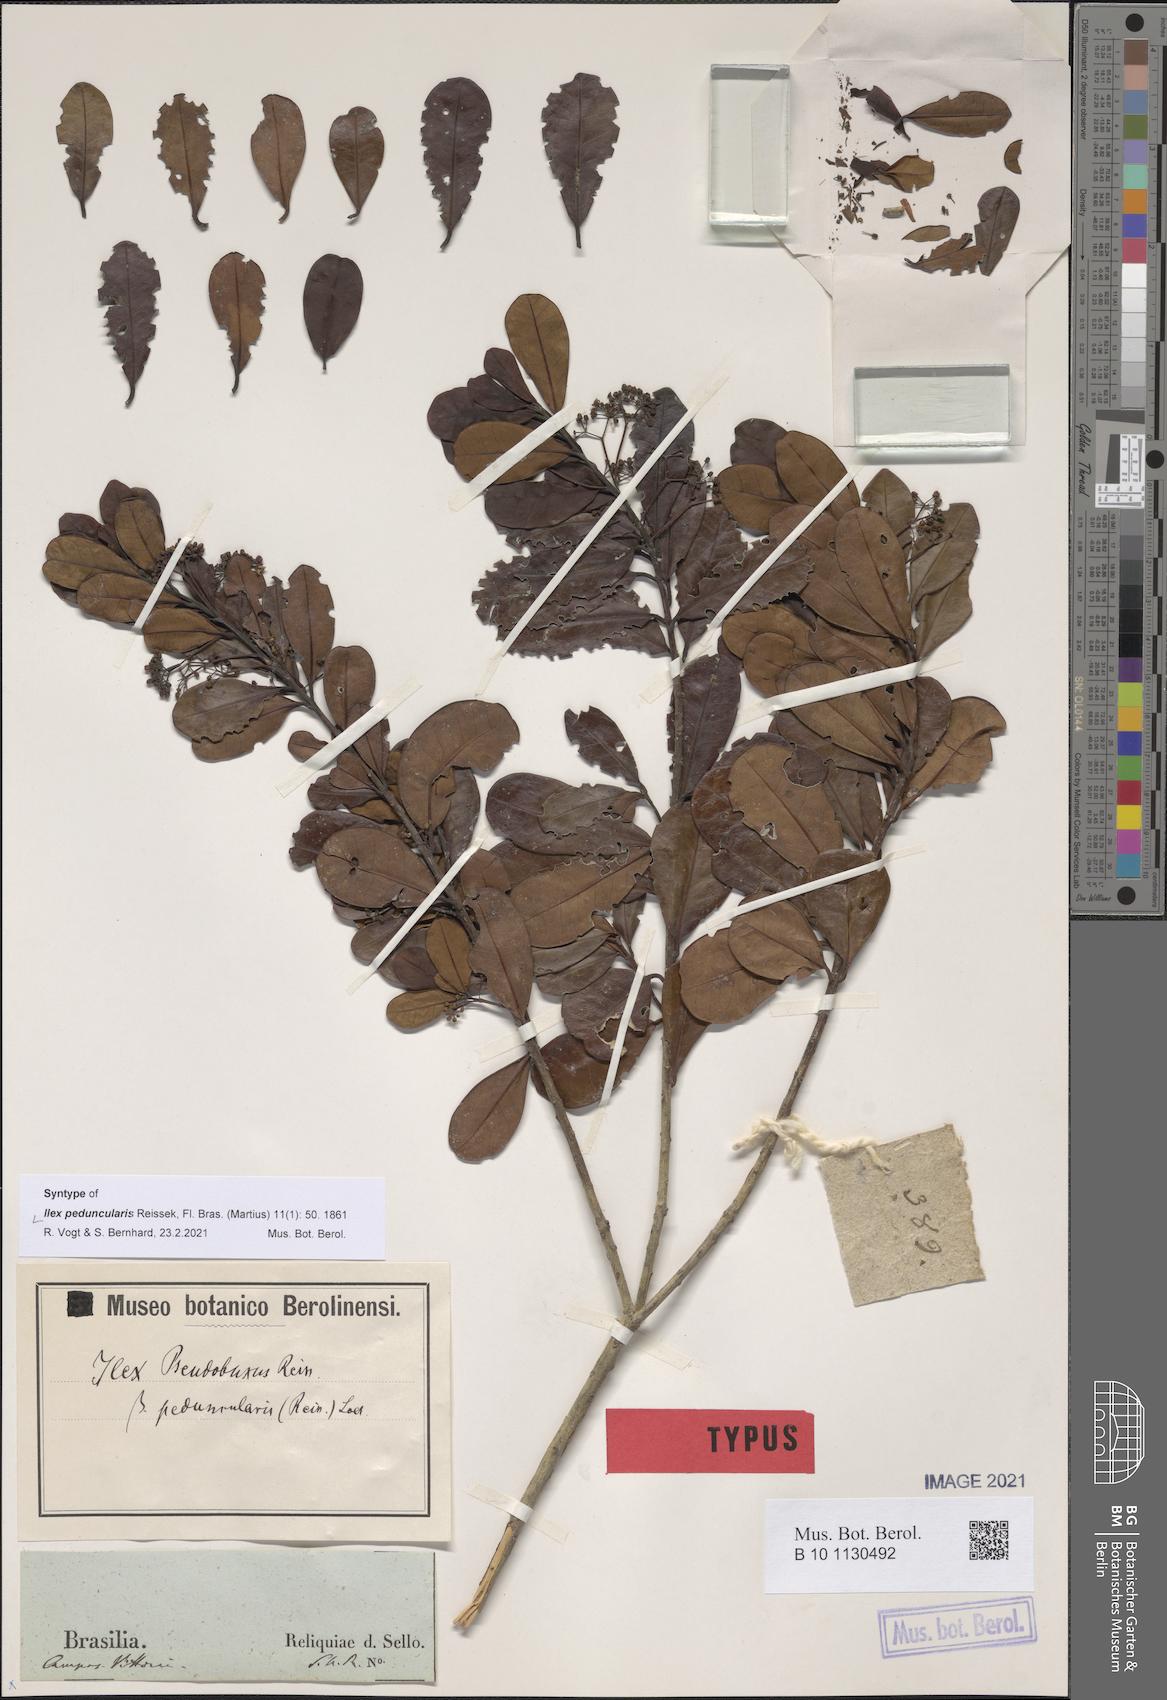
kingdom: Plantae
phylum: Tracheophyta
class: Magnoliopsida
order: Aquifoliales
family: Aquifoliaceae
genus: Ilex
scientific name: Ilex pseudobuxus
